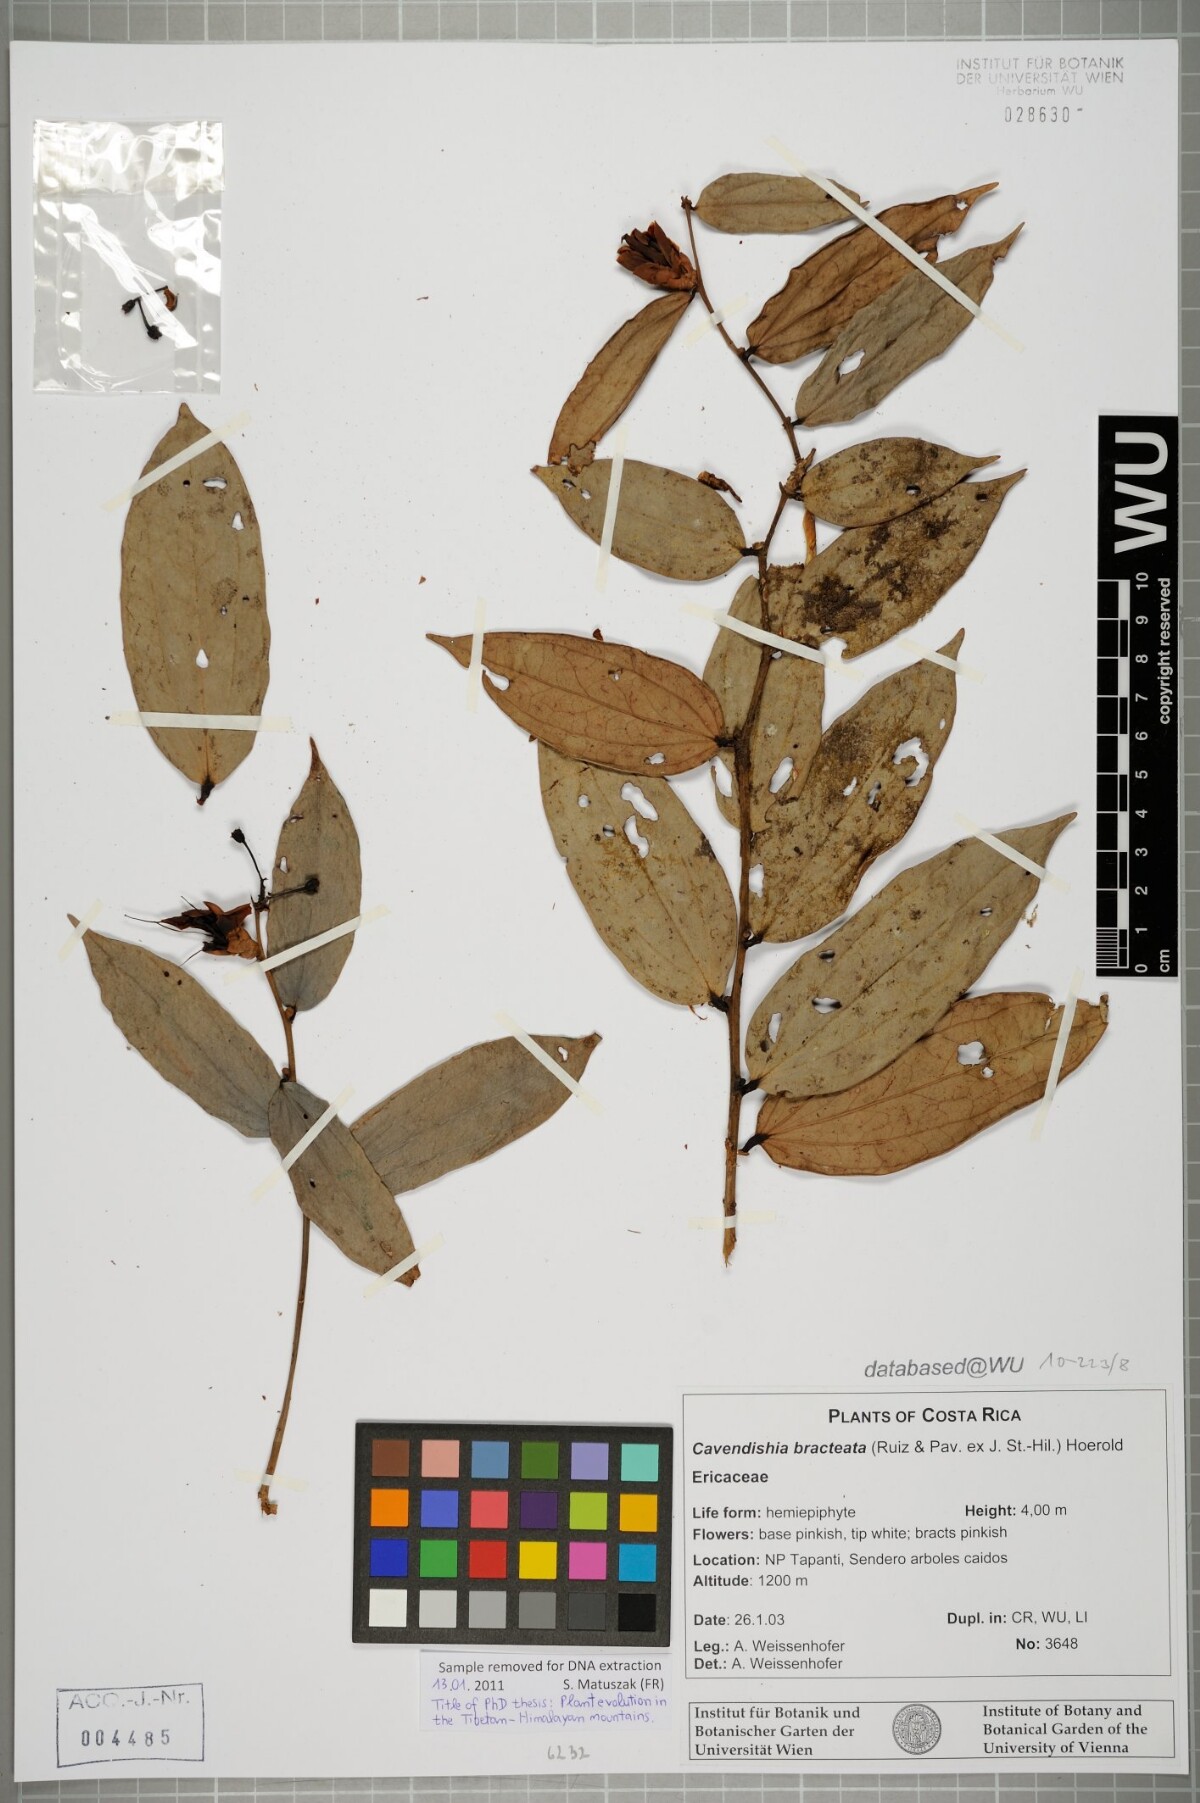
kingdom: Plantae
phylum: Tracheophyta
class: Magnoliopsida
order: Ericales
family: Ericaceae
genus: Cavendishia
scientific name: Cavendishia bracteata
